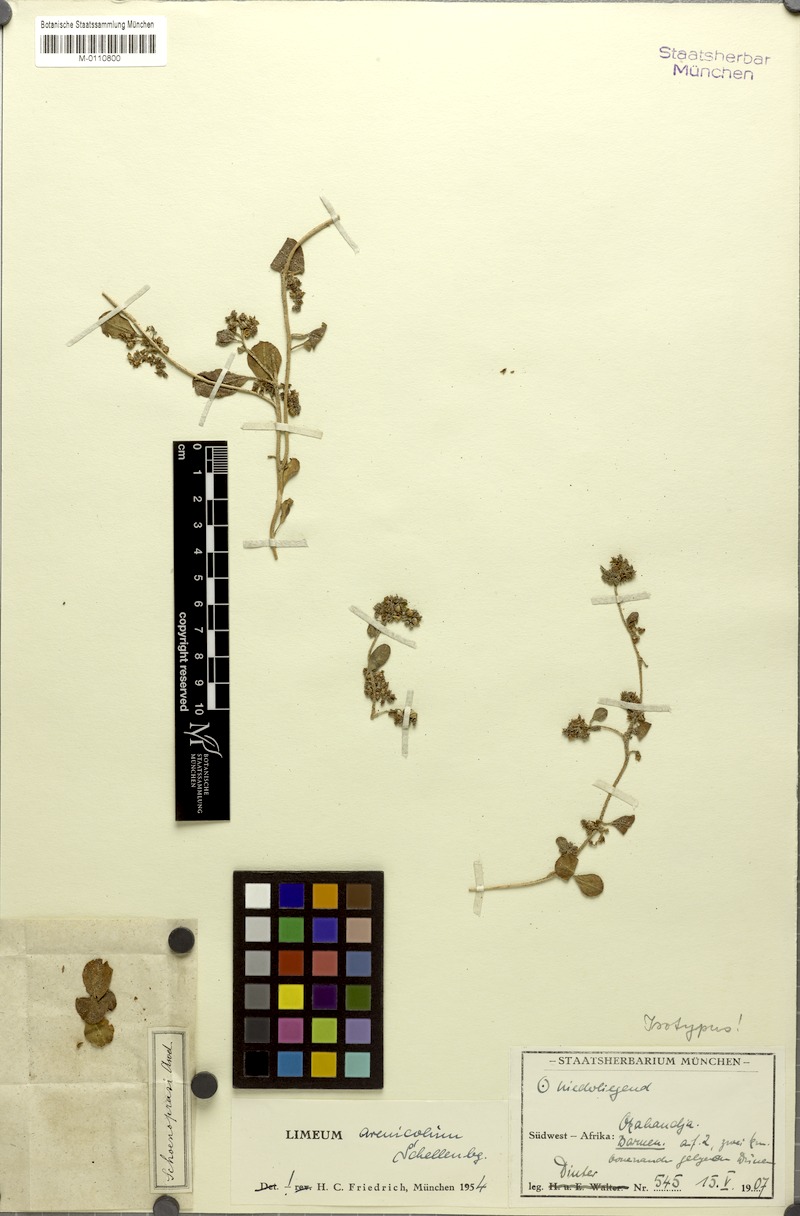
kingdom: Plantae
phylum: Tracheophyta
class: Magnoliopsida
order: Caryophyllales
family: Limeaceae
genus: Limeum
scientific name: Limeum arenicolum
